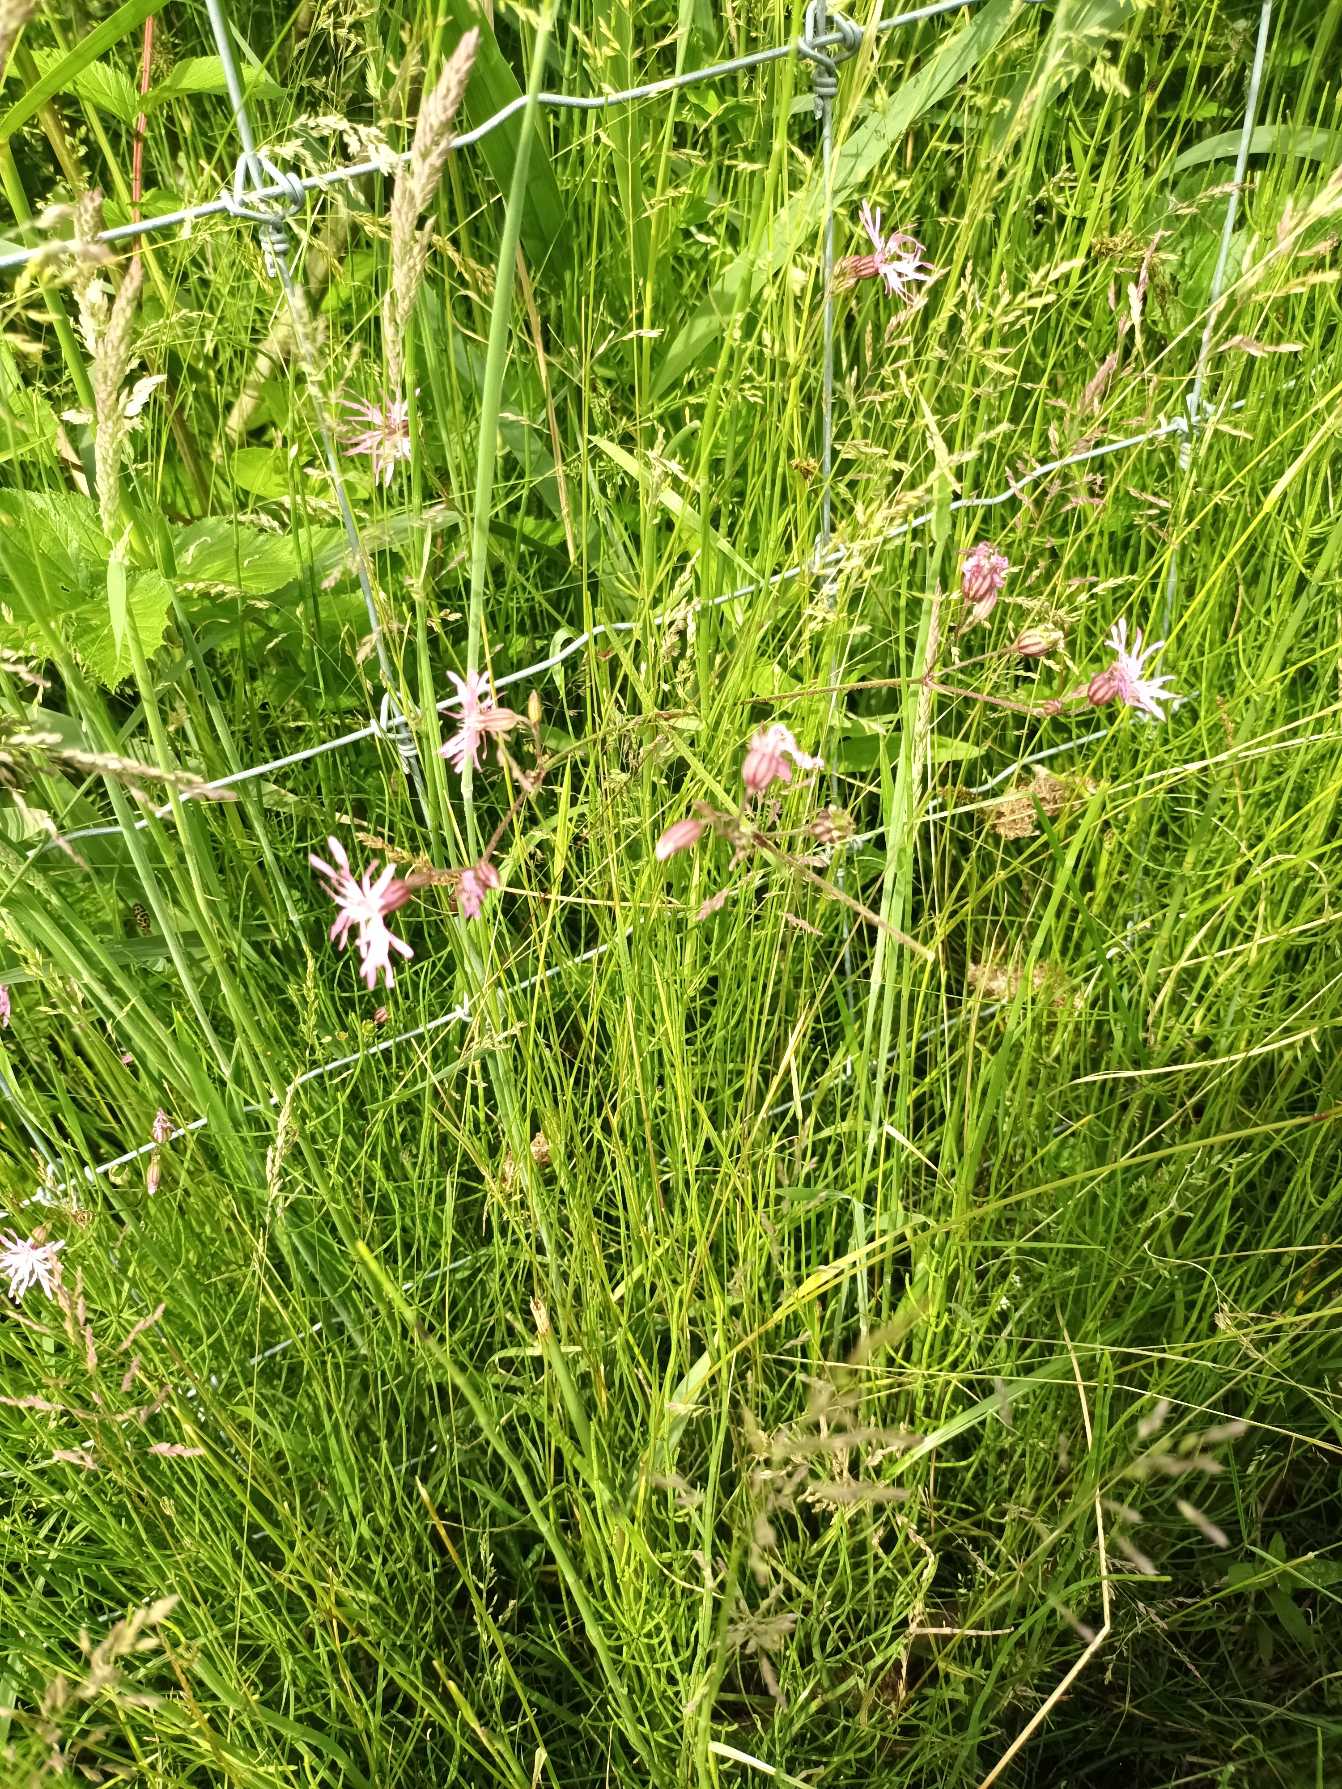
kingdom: Plantae
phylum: Tracheophyta
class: Magnoliopsida
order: Caryophyllales
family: Caryophyllaceae
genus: Silene
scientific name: Silene flos-cuculi
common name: Trævlekrone
